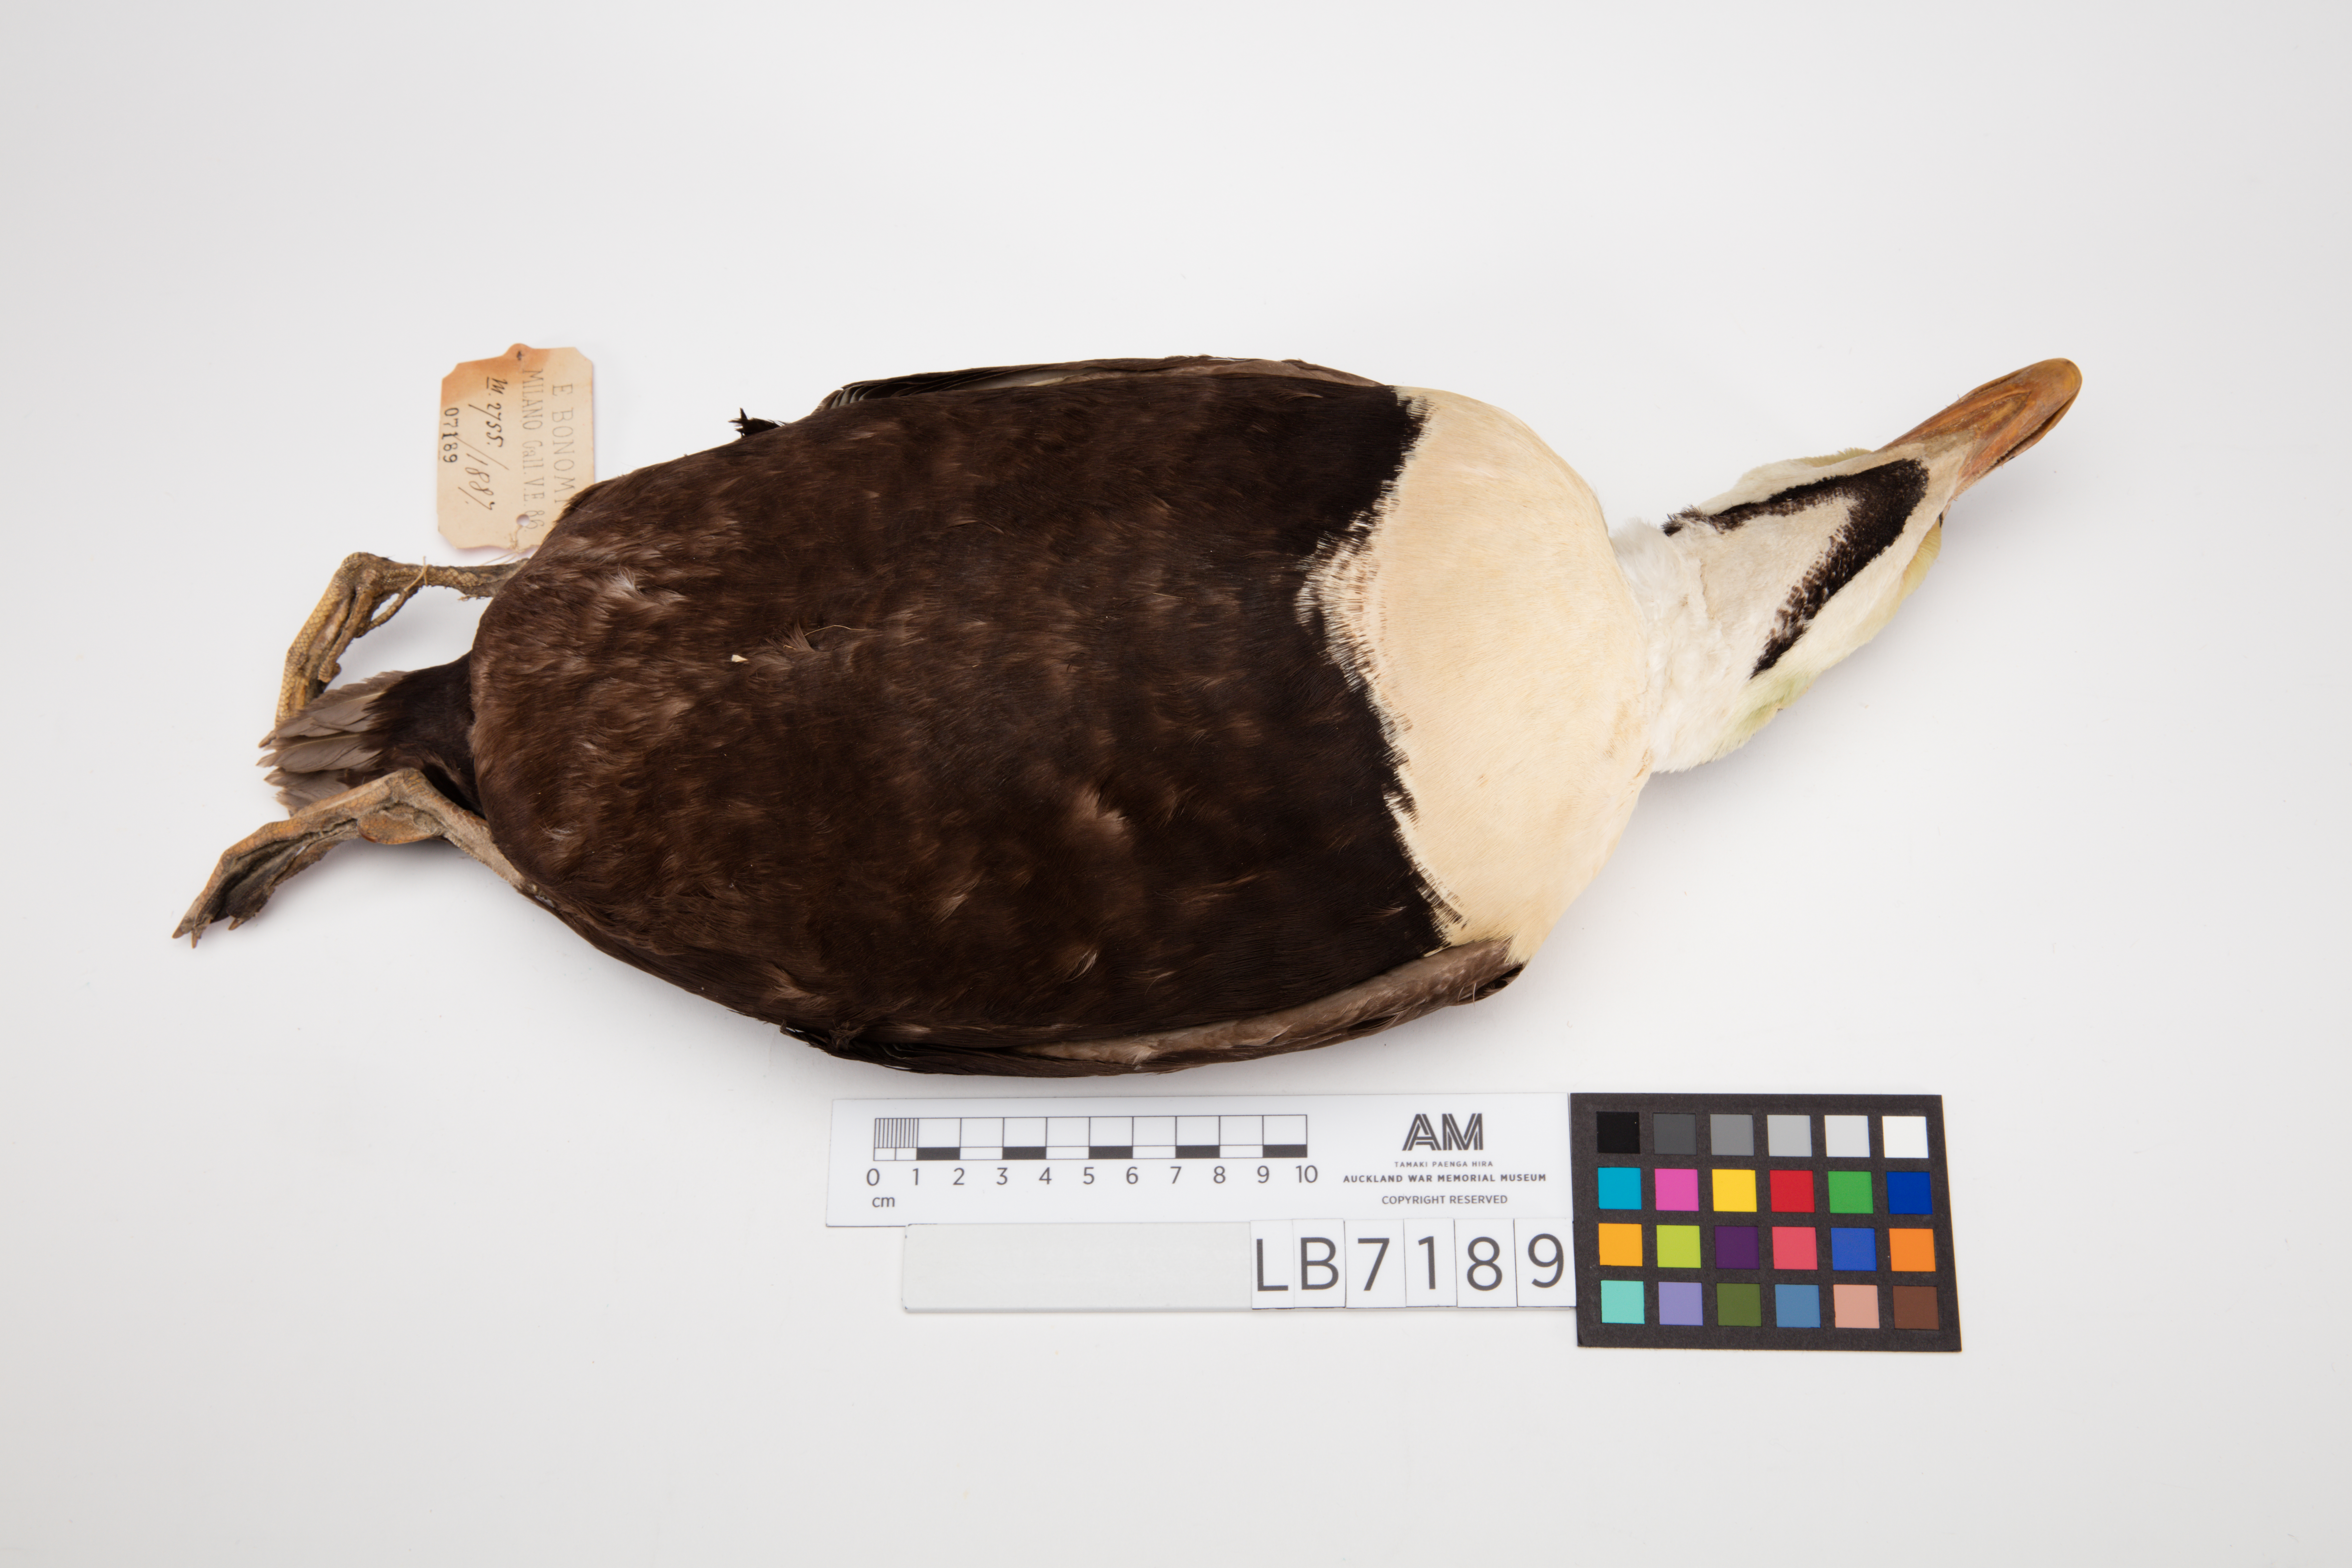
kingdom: Animalia
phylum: Chordata
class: Aves
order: Anseriformes
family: Anatidae
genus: Somateria
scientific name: Somateria spectabilis
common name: King eider
